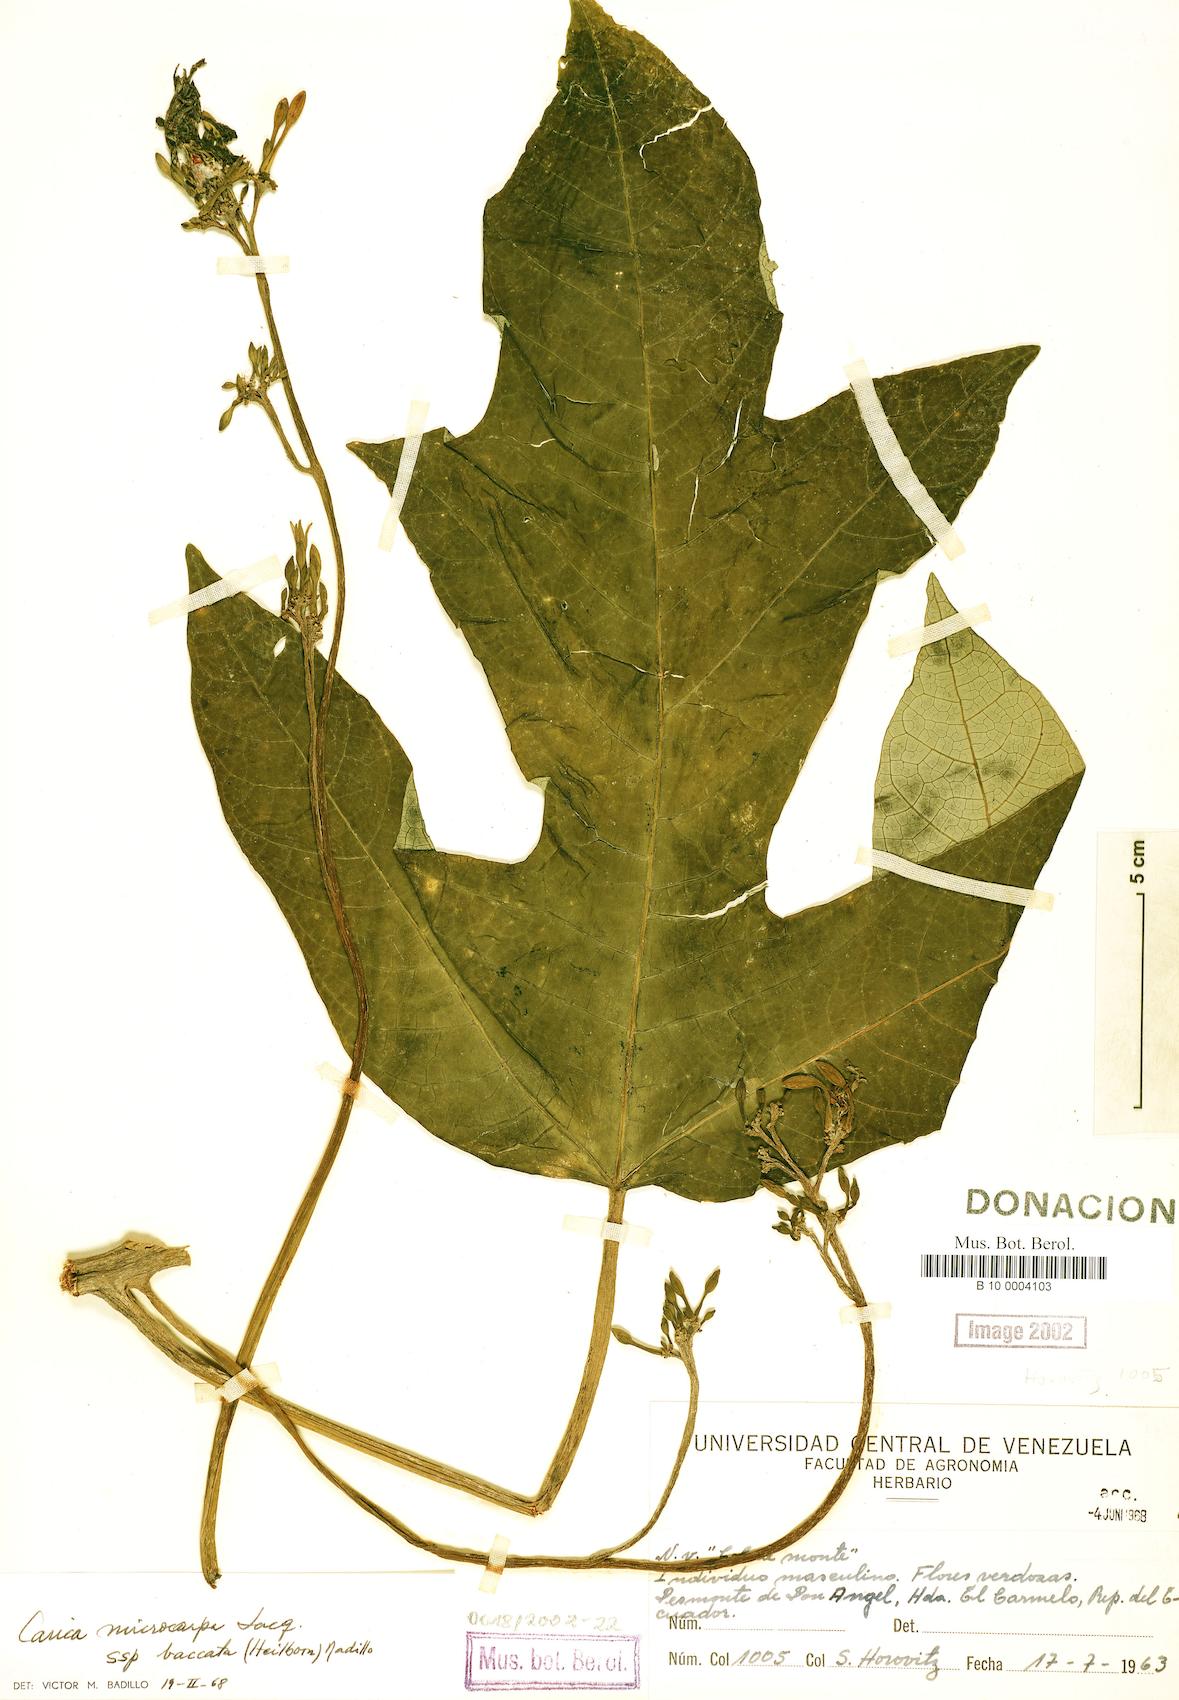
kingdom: Plantae
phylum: Tracheophyta
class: Magnoliopsida
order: Brassicales
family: Caricaceae
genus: Vasconcellea
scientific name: Vasconcellea microcarpa
